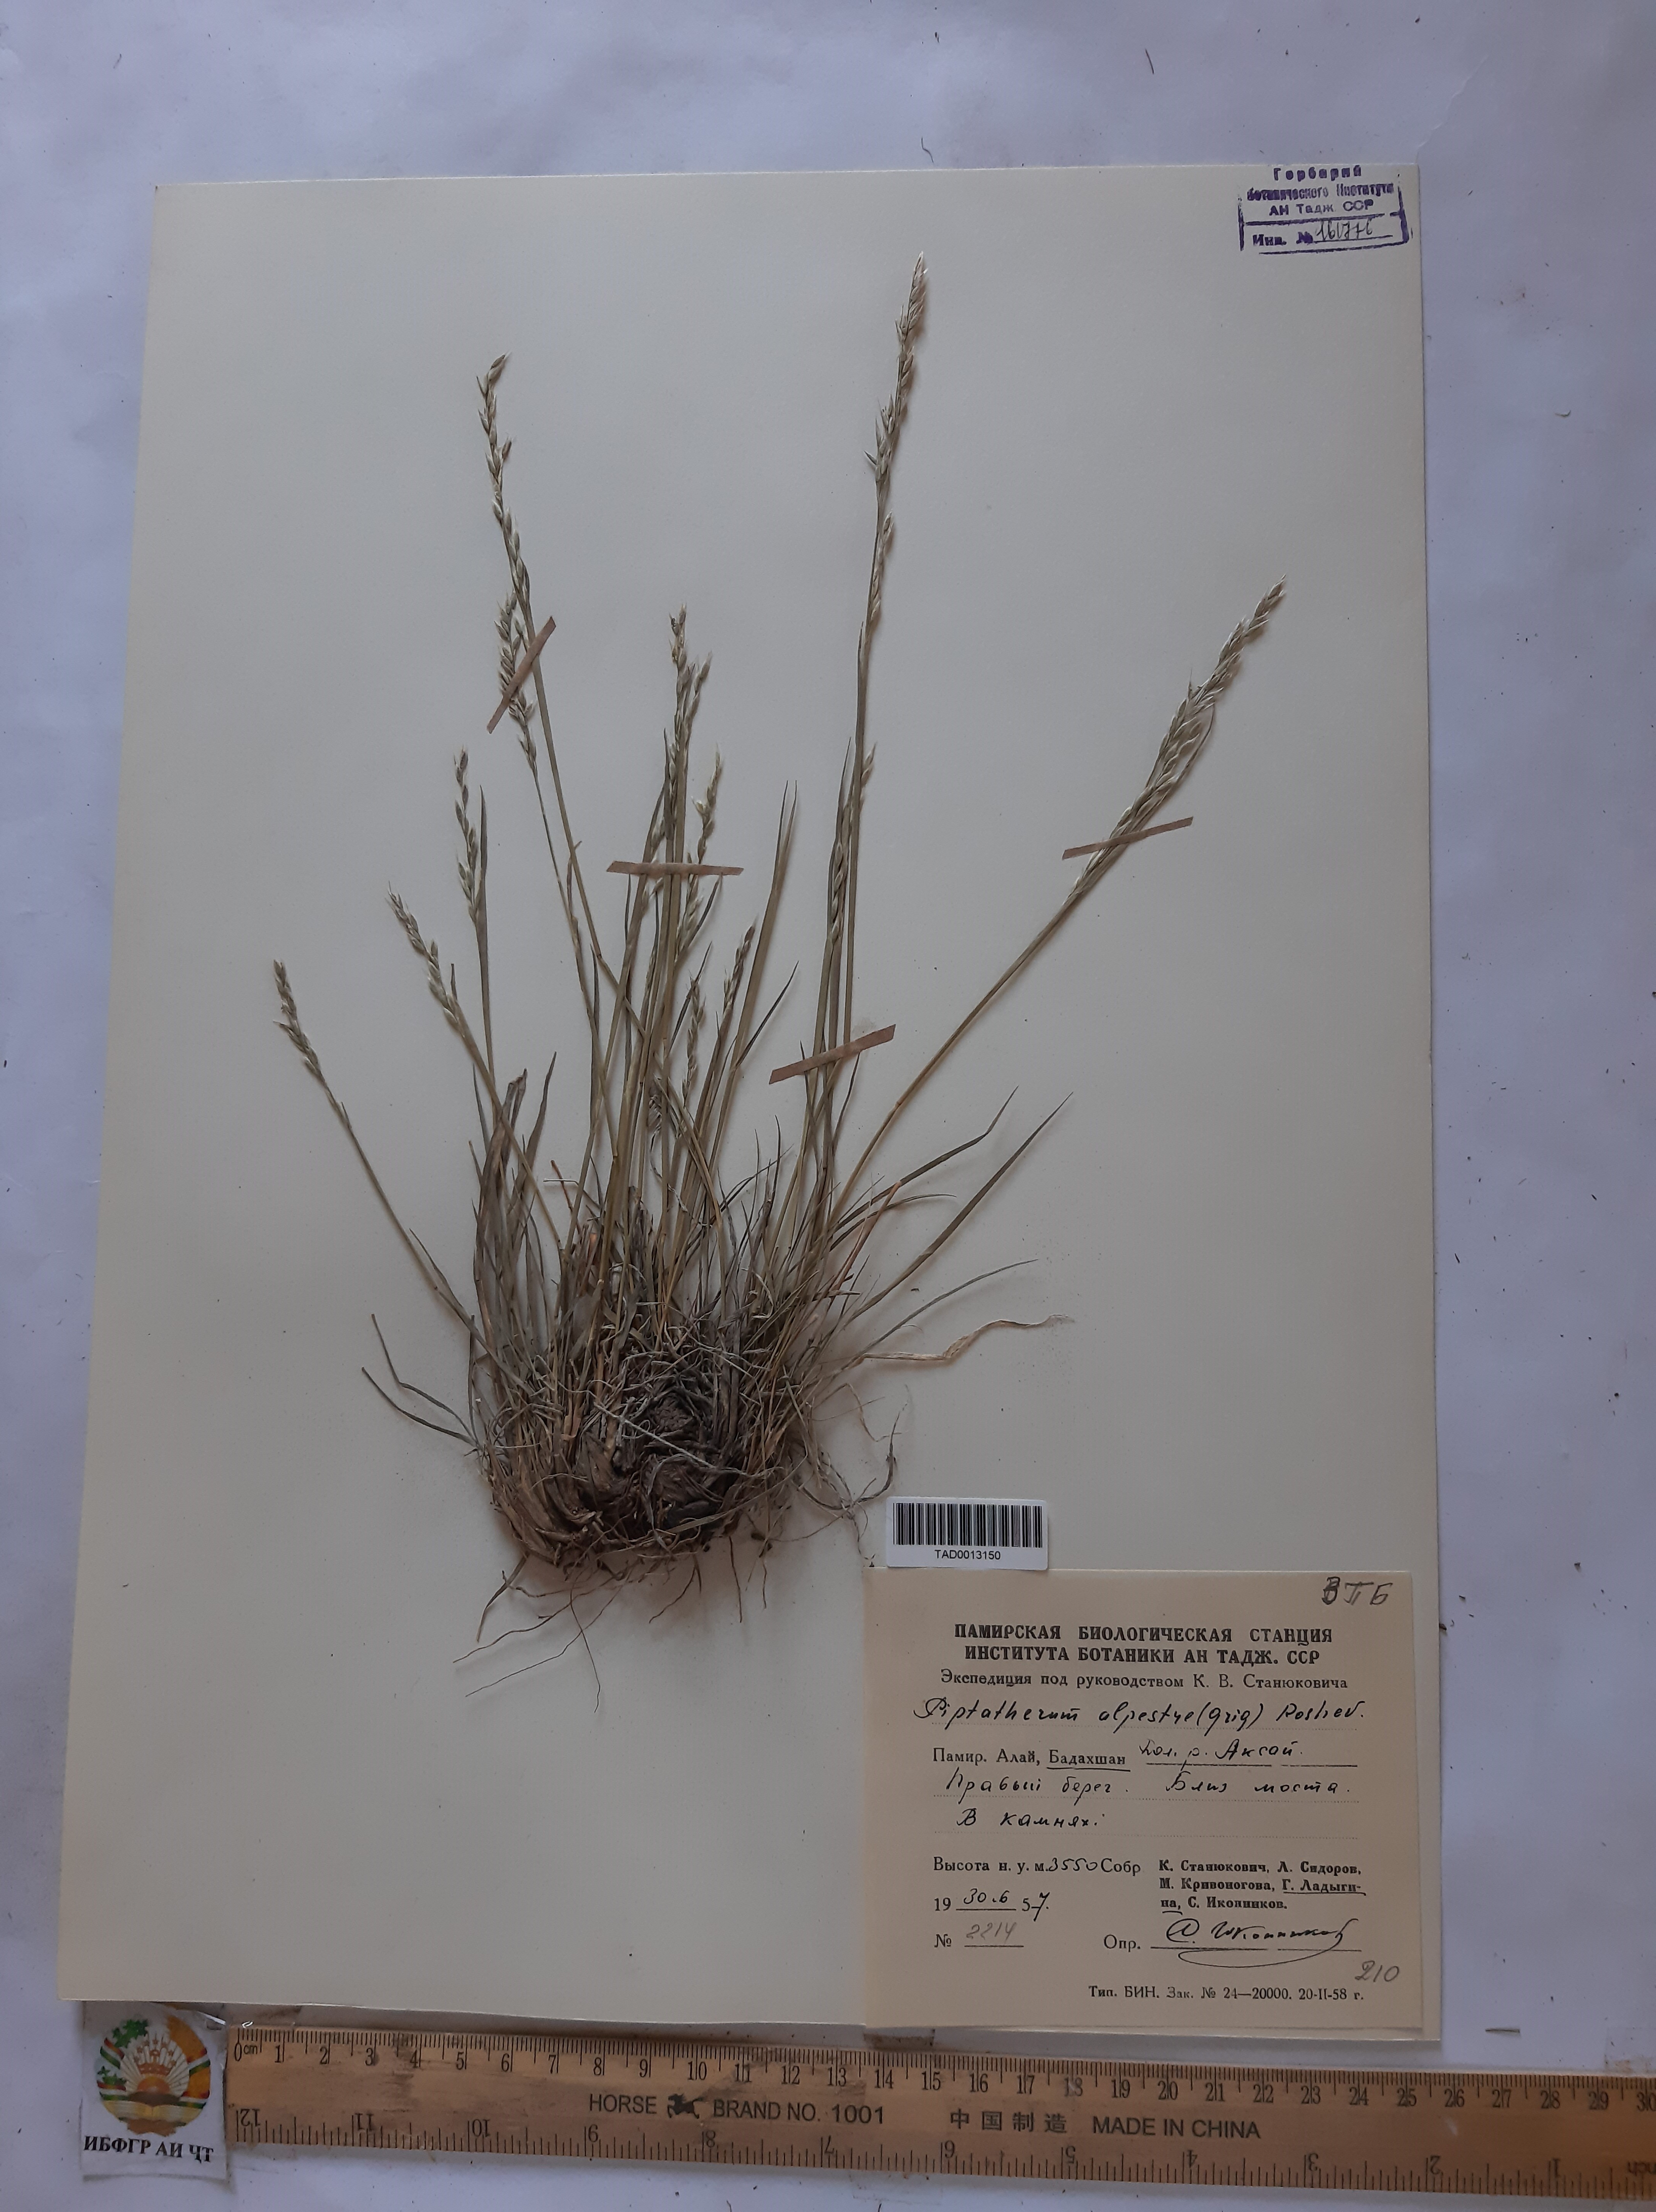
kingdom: Plantae
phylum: Tracheophyta
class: Liliopsida
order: Poales
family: Poaceae
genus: Piptatherum
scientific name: Piptatherum alpestre
